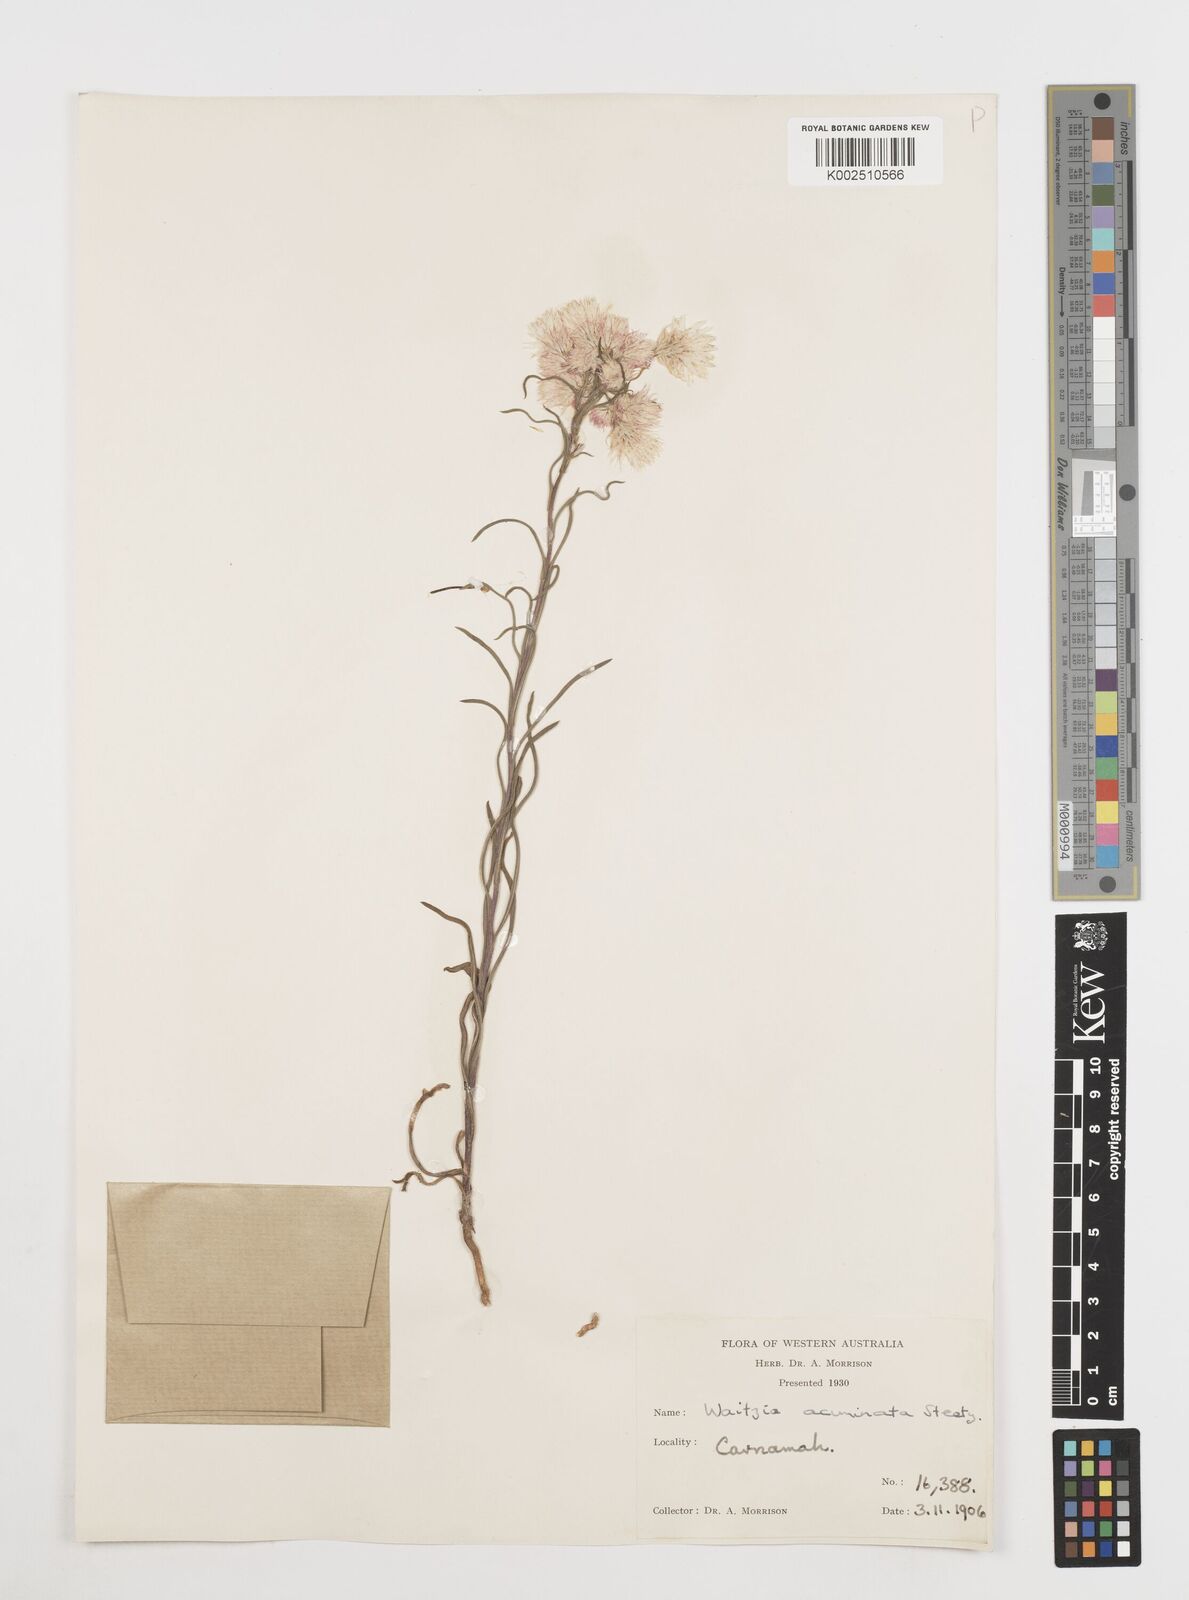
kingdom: Plantae
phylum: Tracheophyta
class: Magnoliopsida
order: Asterales
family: Asteraceae
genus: Waitzia
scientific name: Waitzia acuminata
